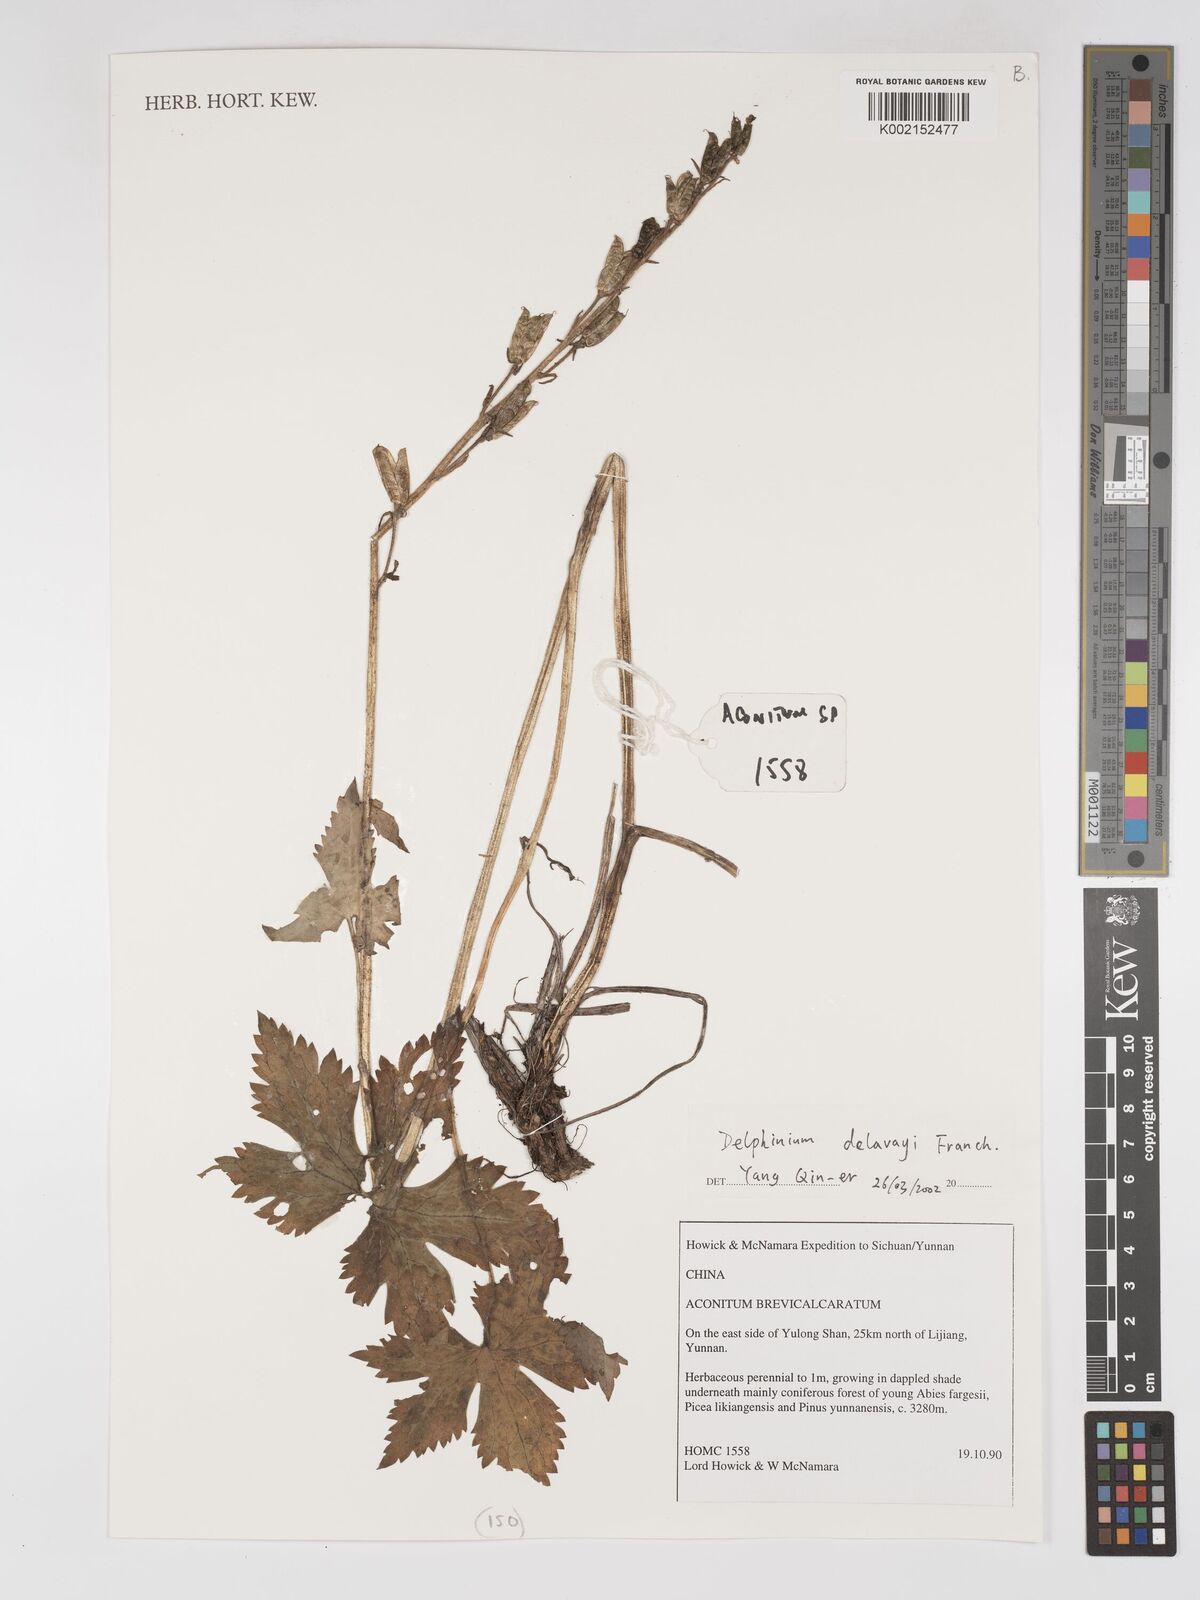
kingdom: Plantae
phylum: Tracheophyta
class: Magnoliopsida
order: Ranunculales
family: Ranunculaceae
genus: Delphinium
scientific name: Delphinium delavayi
